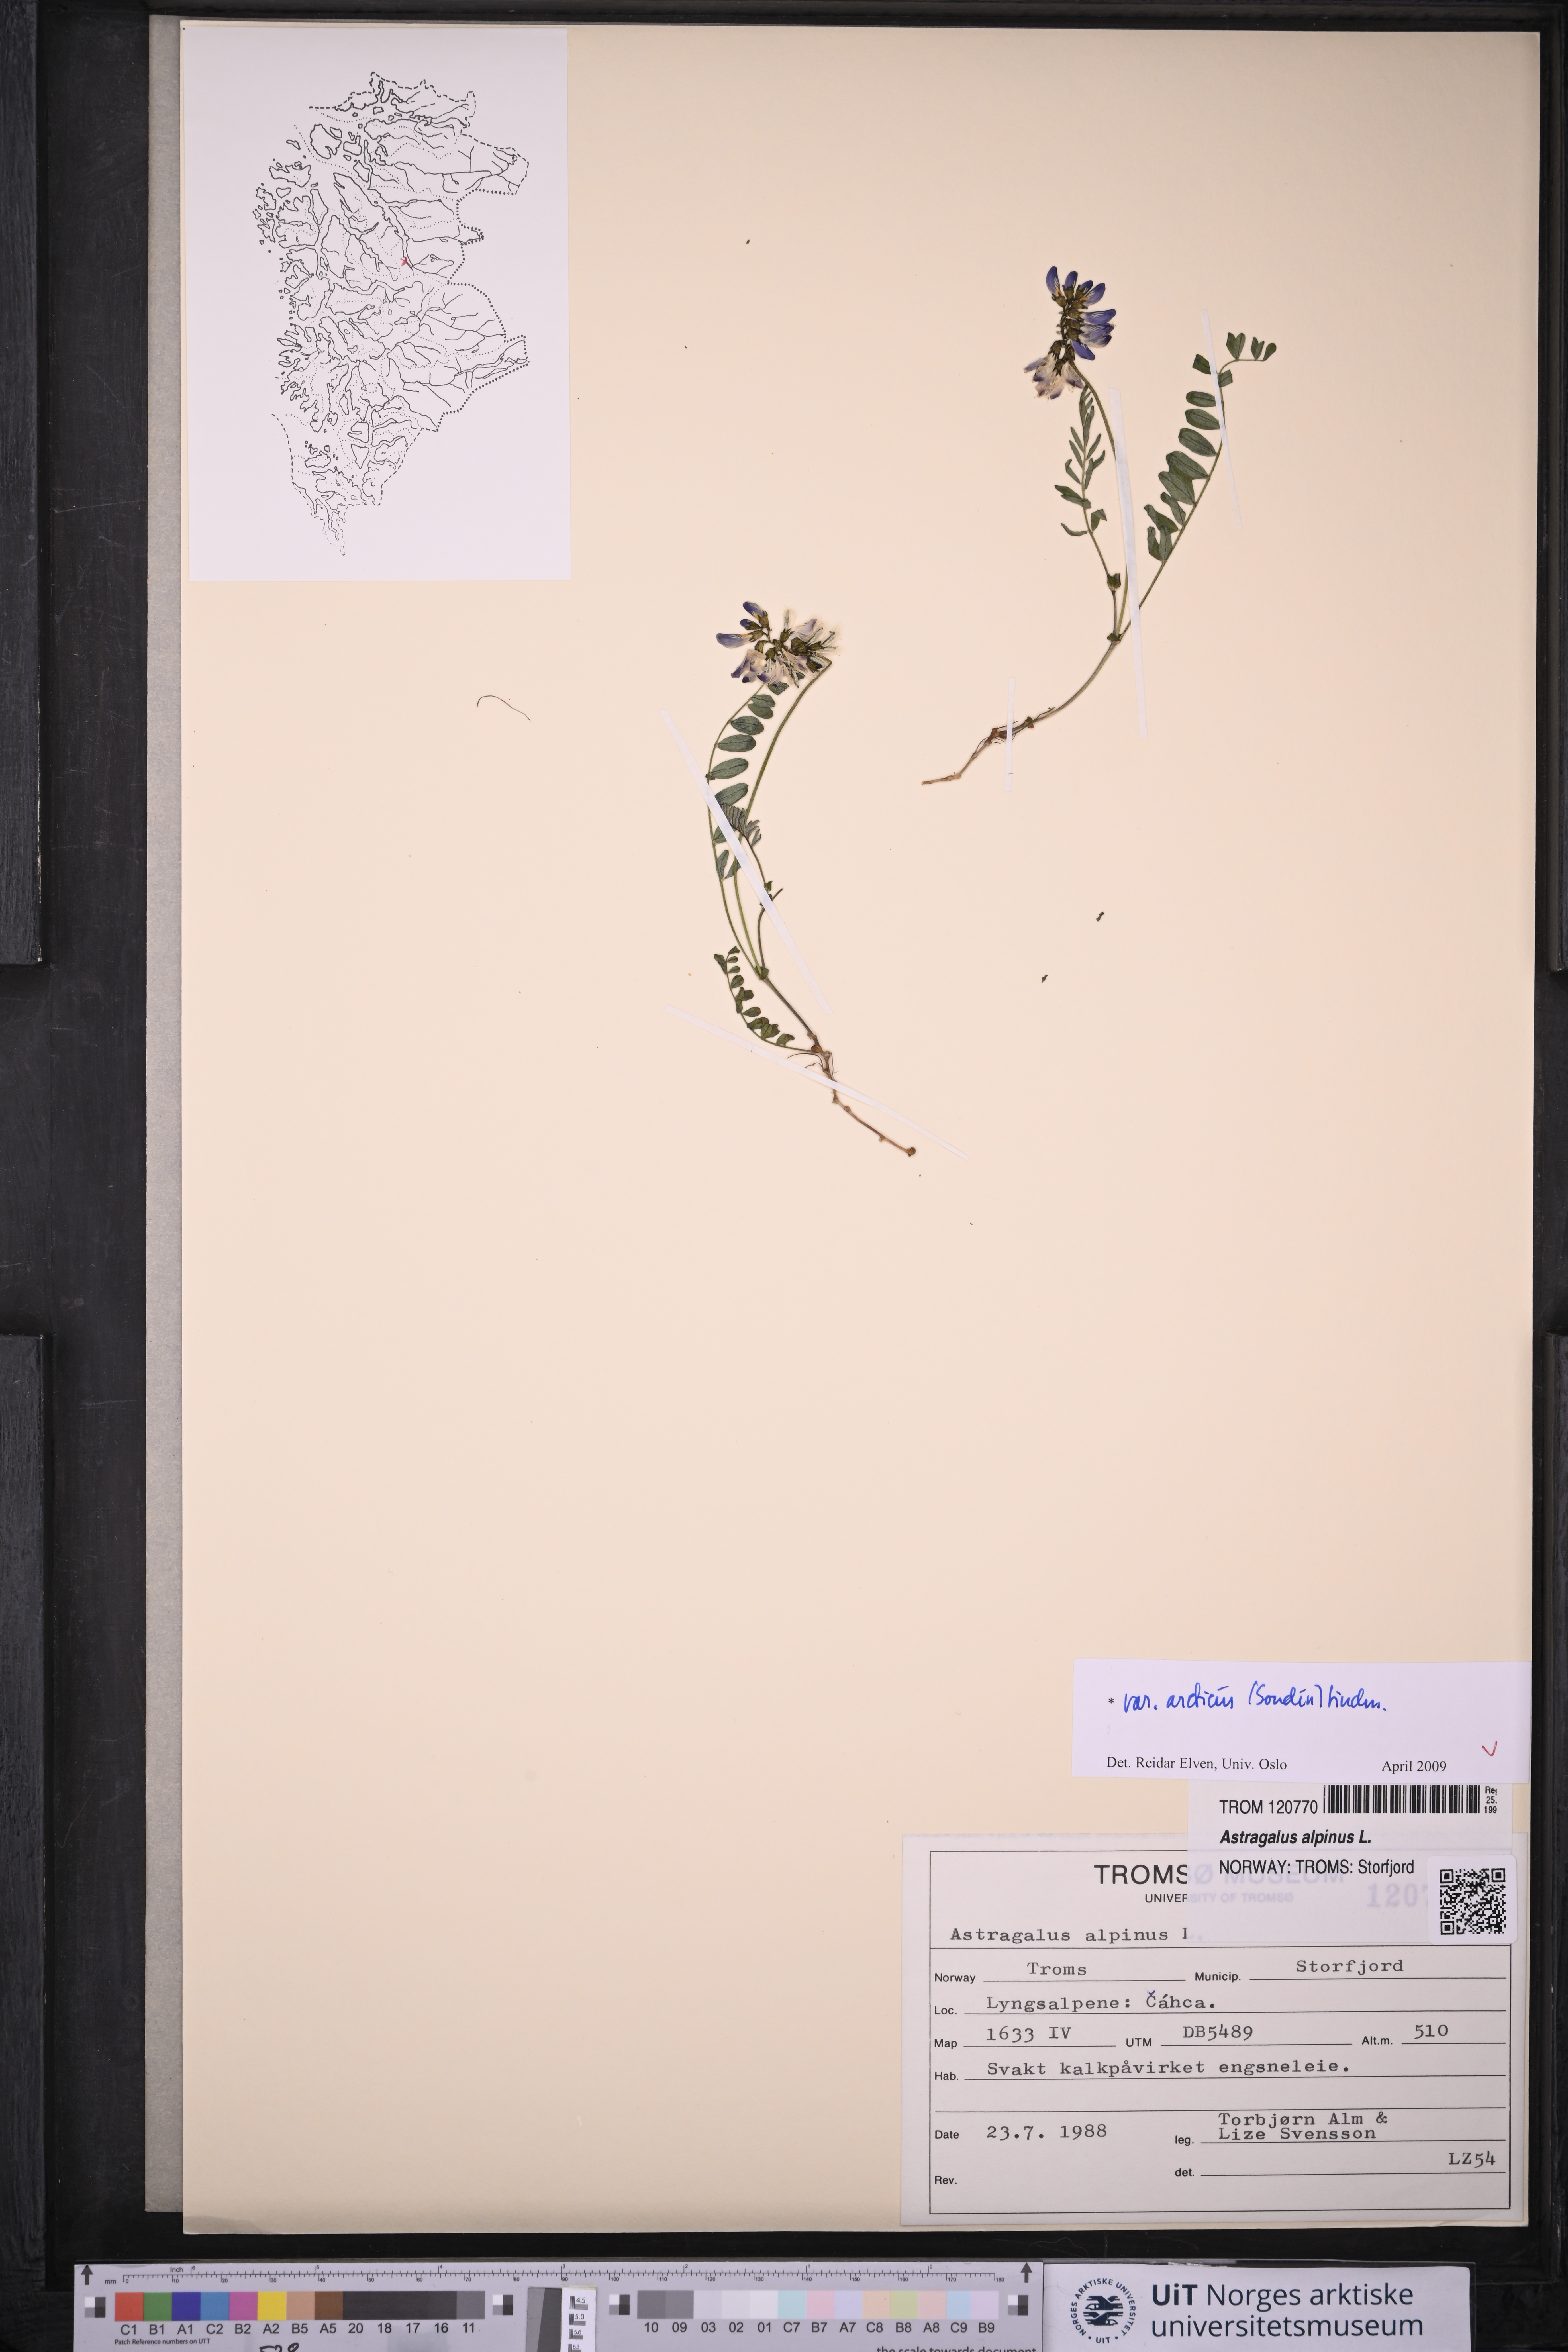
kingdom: Plantae
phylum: Tracheophyta
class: Magnoliopsida
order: Fabales
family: Fabaceae
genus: Astragalus
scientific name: Astragalus norvegicus
